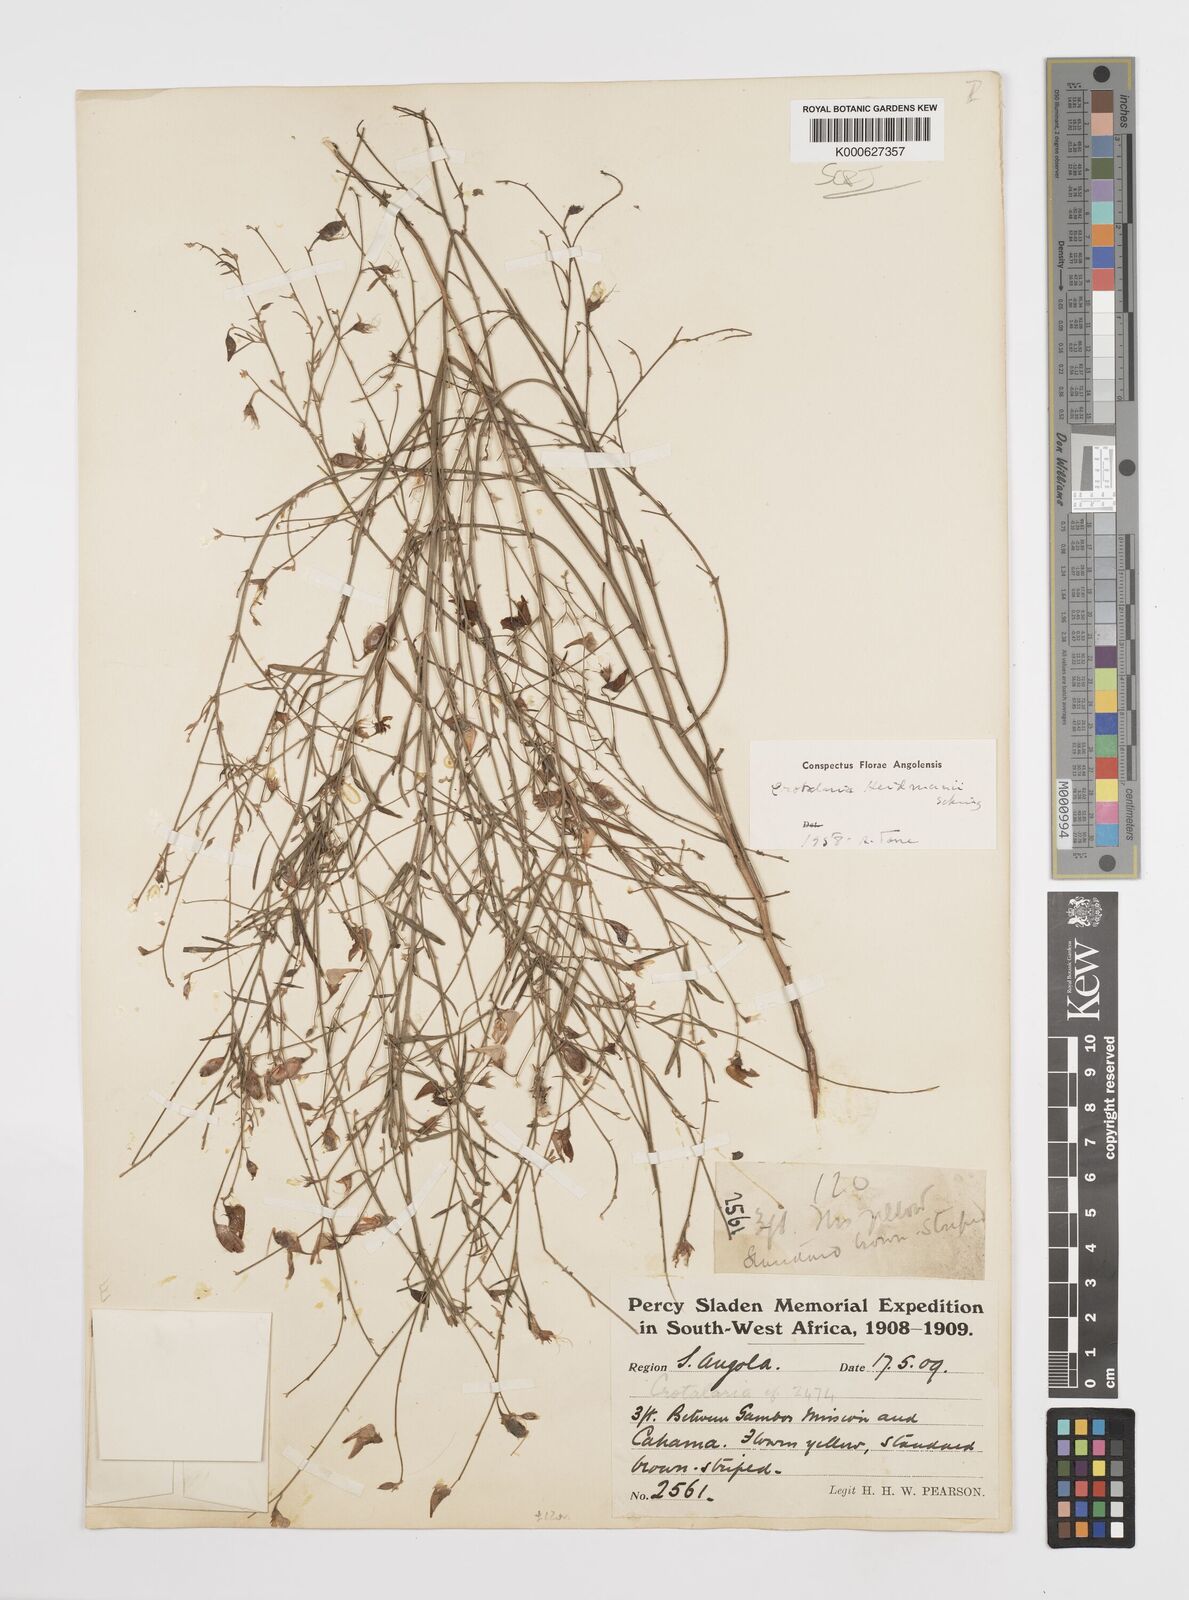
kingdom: Plantae
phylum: Tracheophyta
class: Magnoliopsida
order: Fabales
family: Fabaceae
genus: Crotalaria
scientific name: Crotalaria heidmannii
